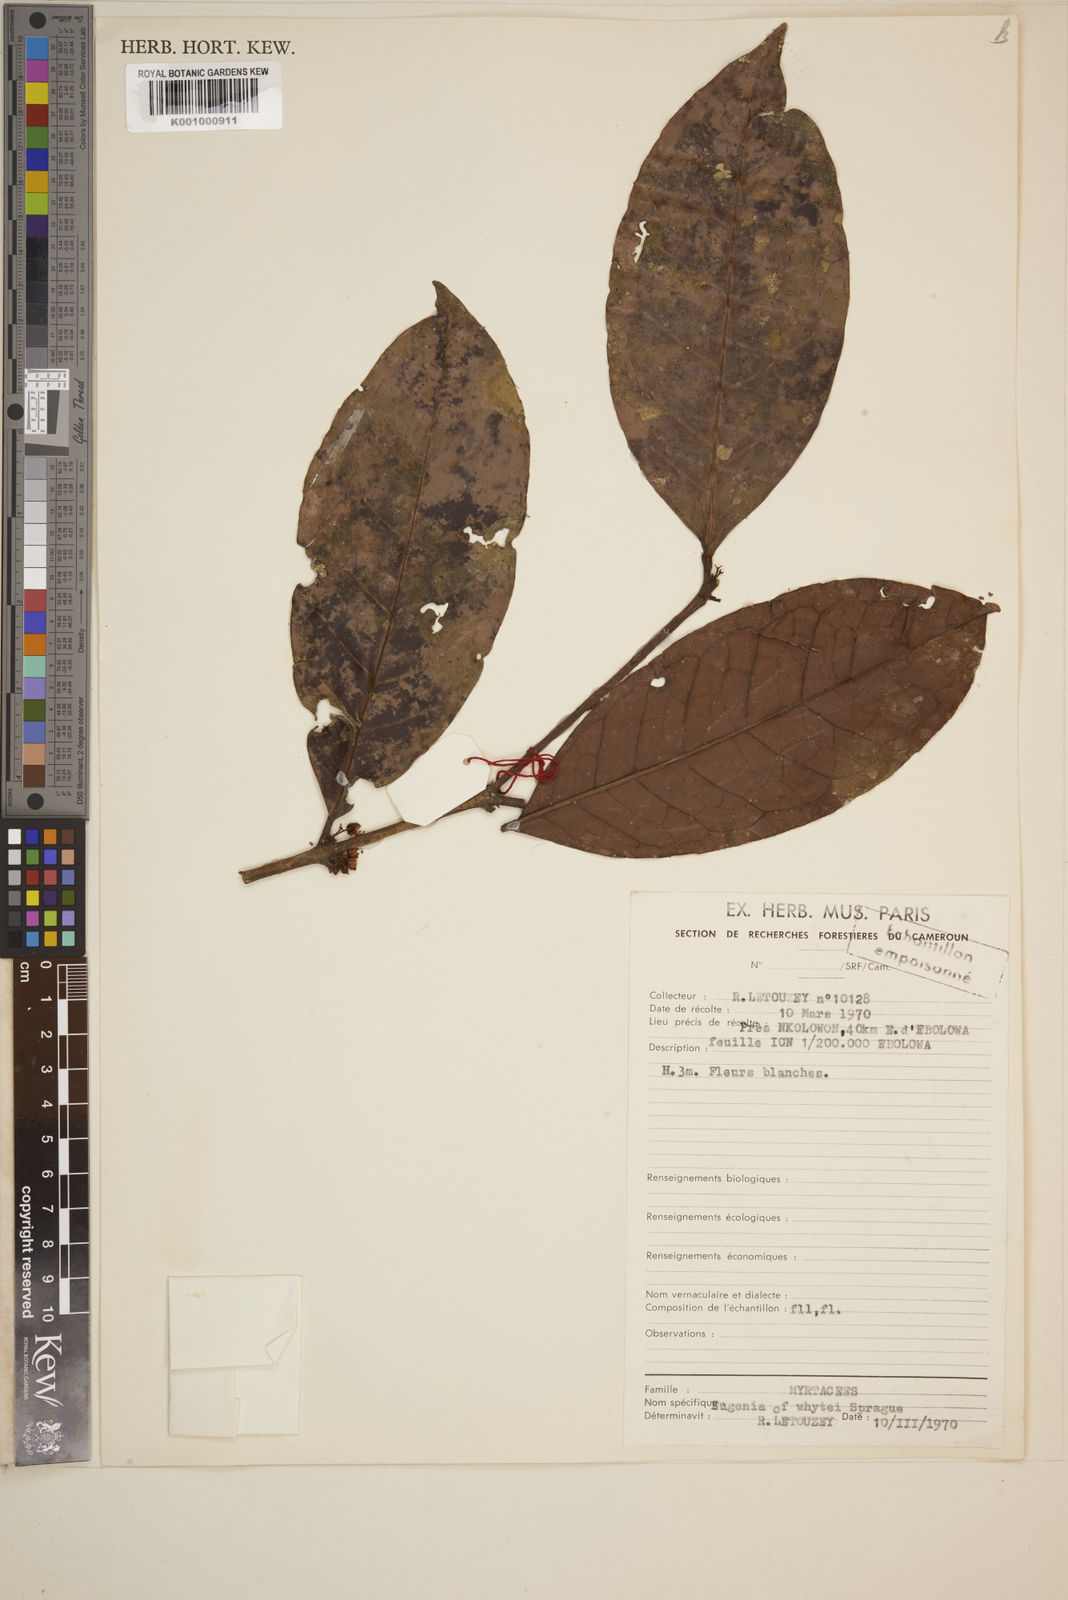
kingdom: Plantae
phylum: Tracheophyta
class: Magnoliopsida
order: Myrtales
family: Myrtaceae
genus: Eugenia
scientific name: Eugenia whytei
